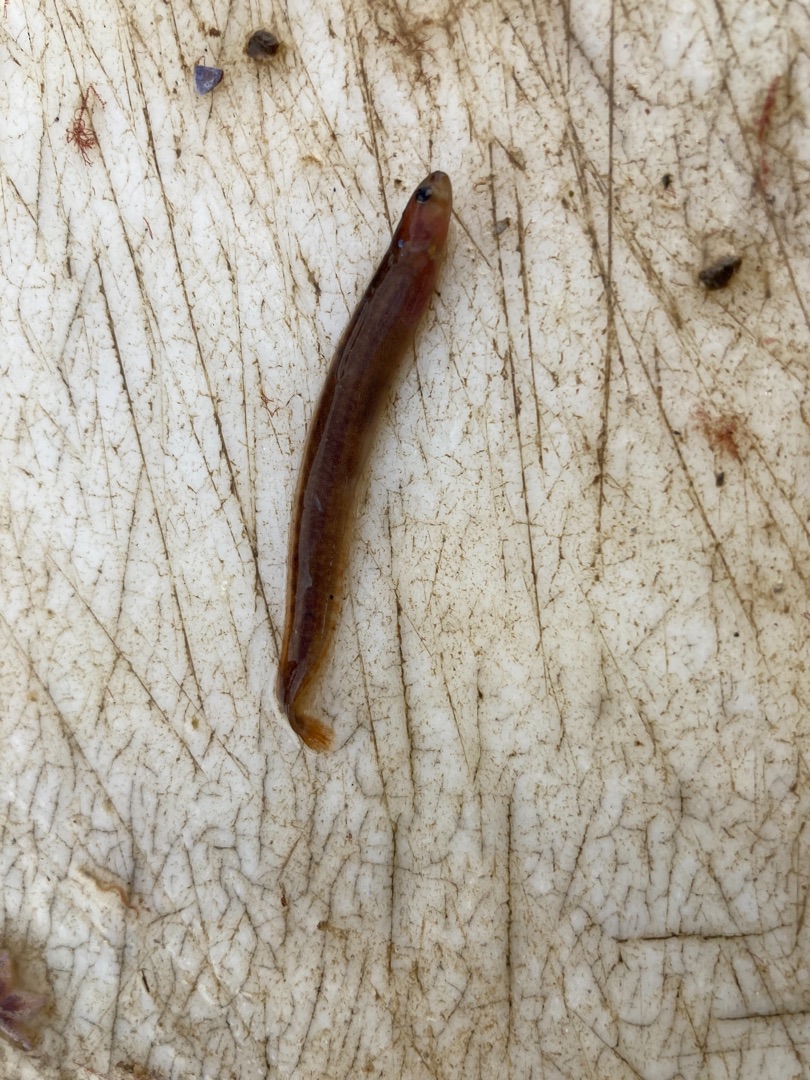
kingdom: Animalia
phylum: Chordata
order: Perciformes
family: Pholidae
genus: Pholis
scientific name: Pholis gunnellus
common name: Tangspræl
